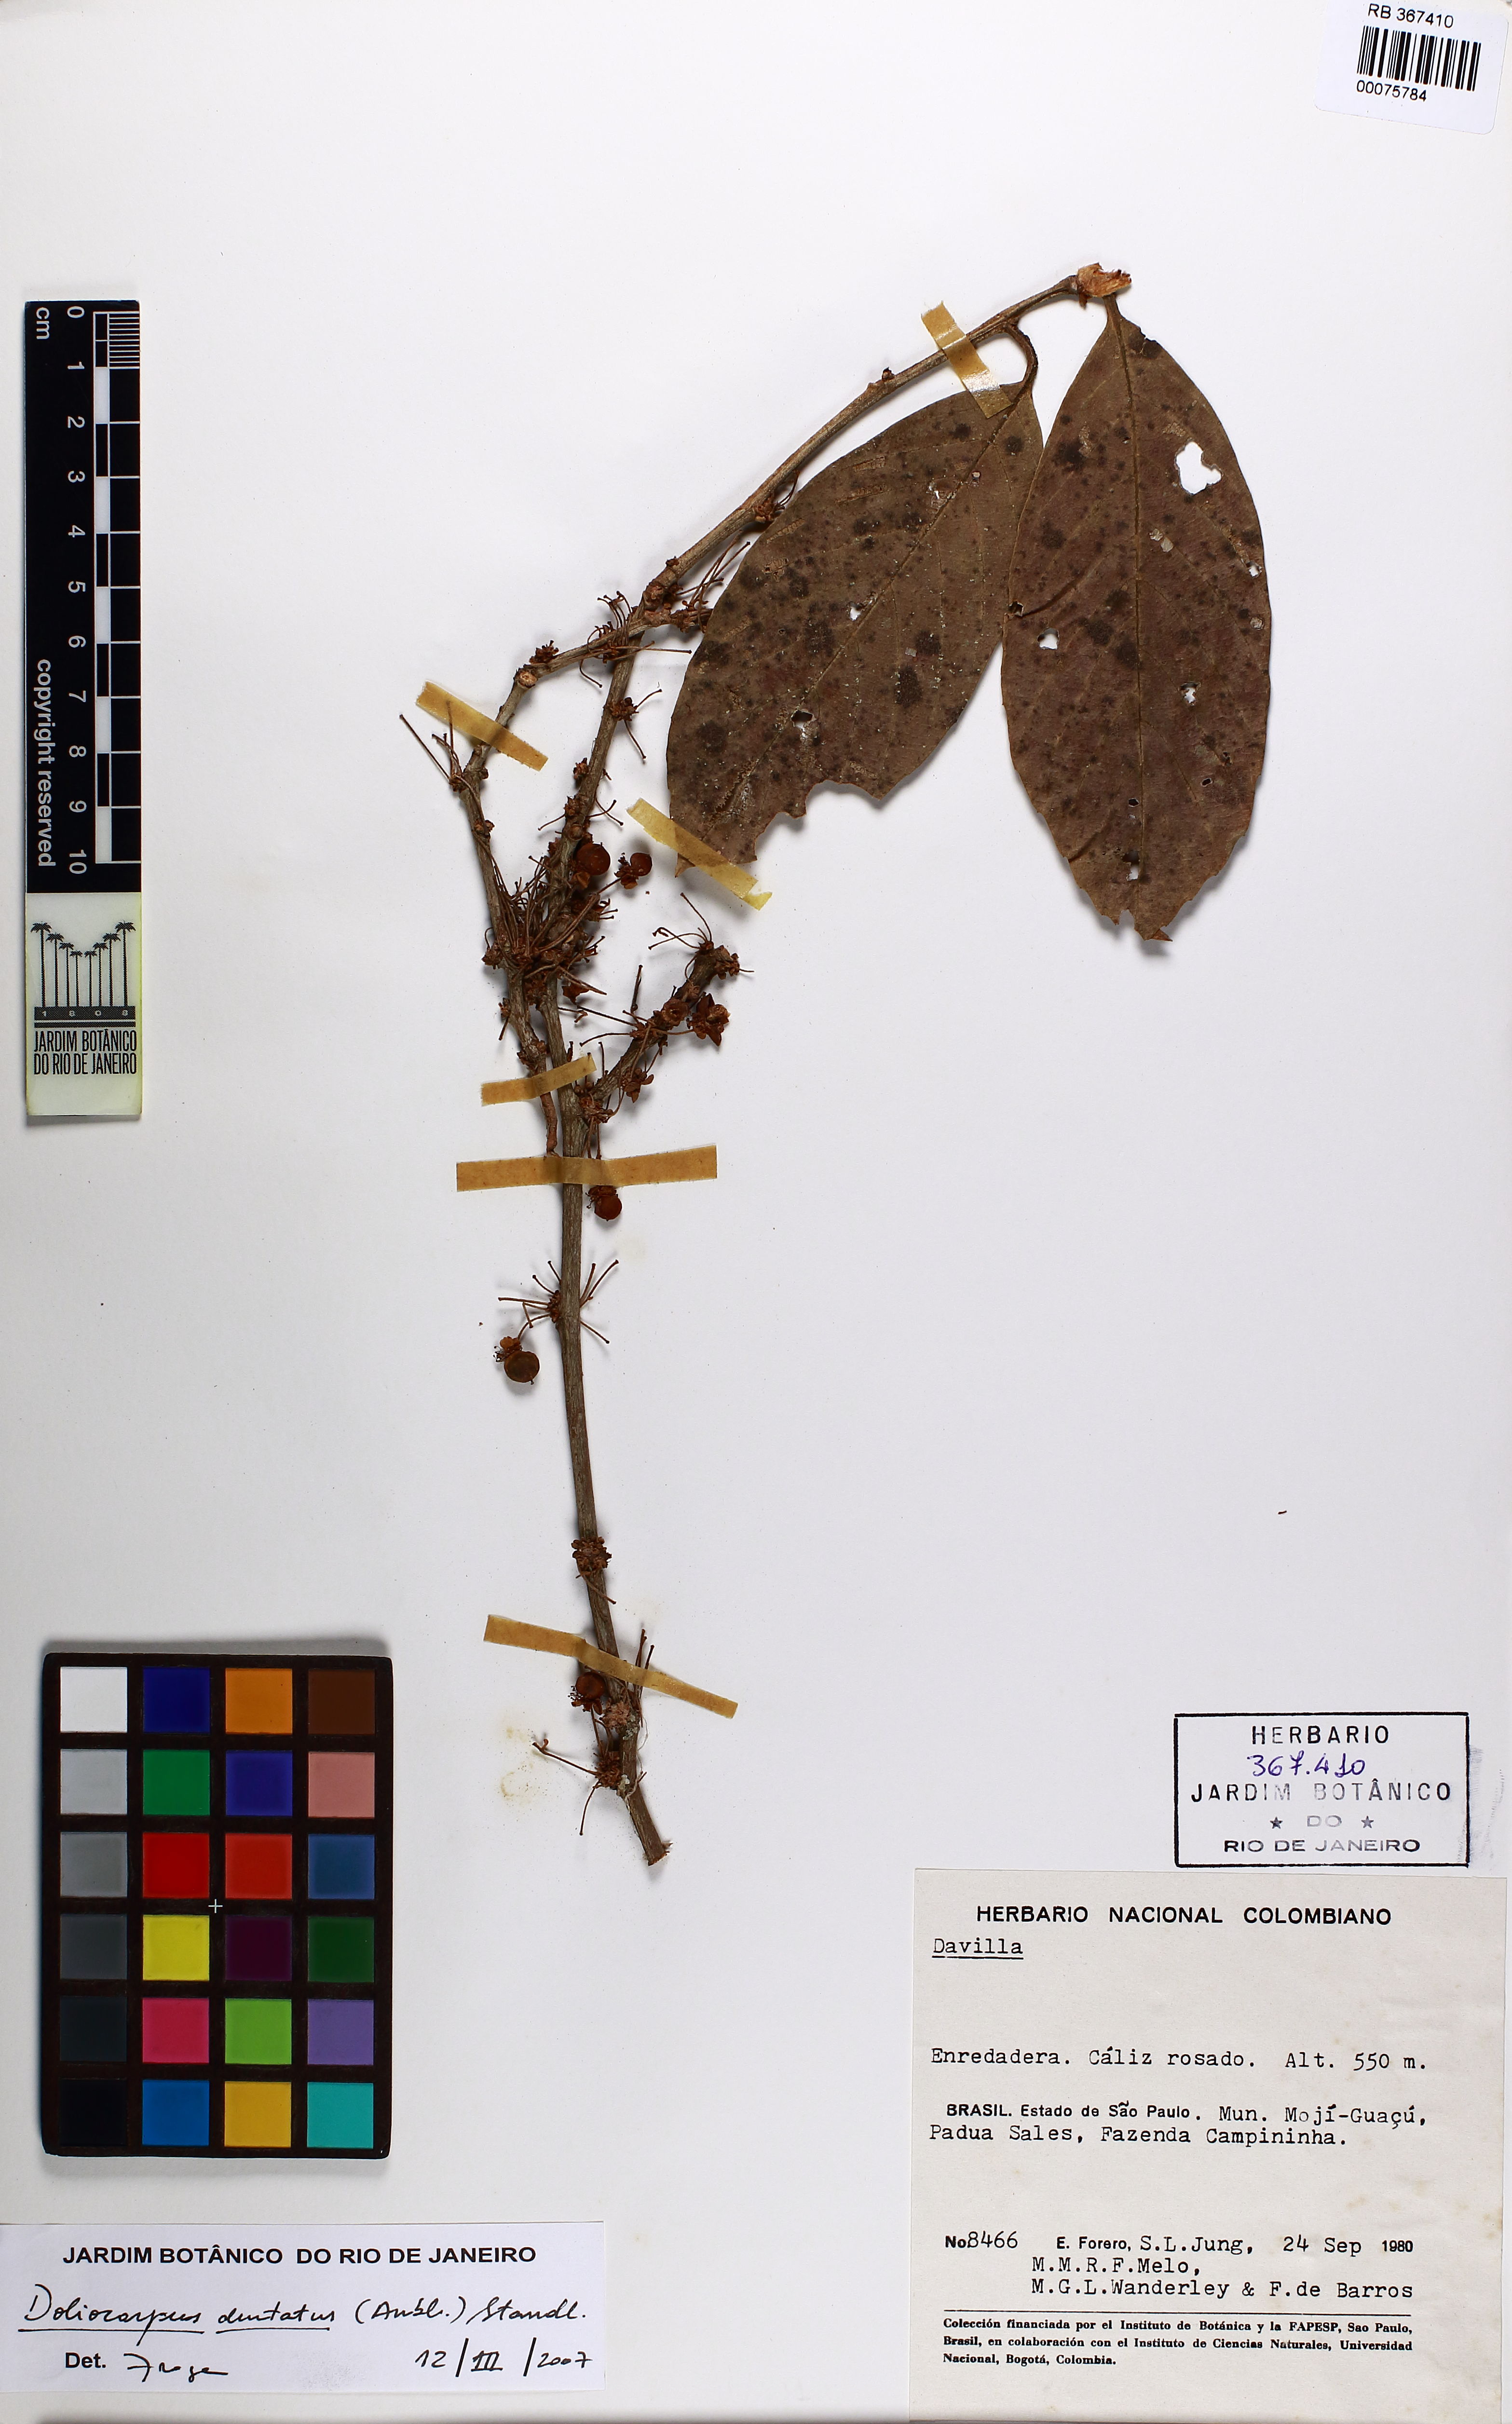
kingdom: Plantae
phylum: Tracheophyta
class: Magnoliopsida
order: Dilleniales
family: Dilleniaceae
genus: Doliocarpus
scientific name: Doliocarpus dentatus
